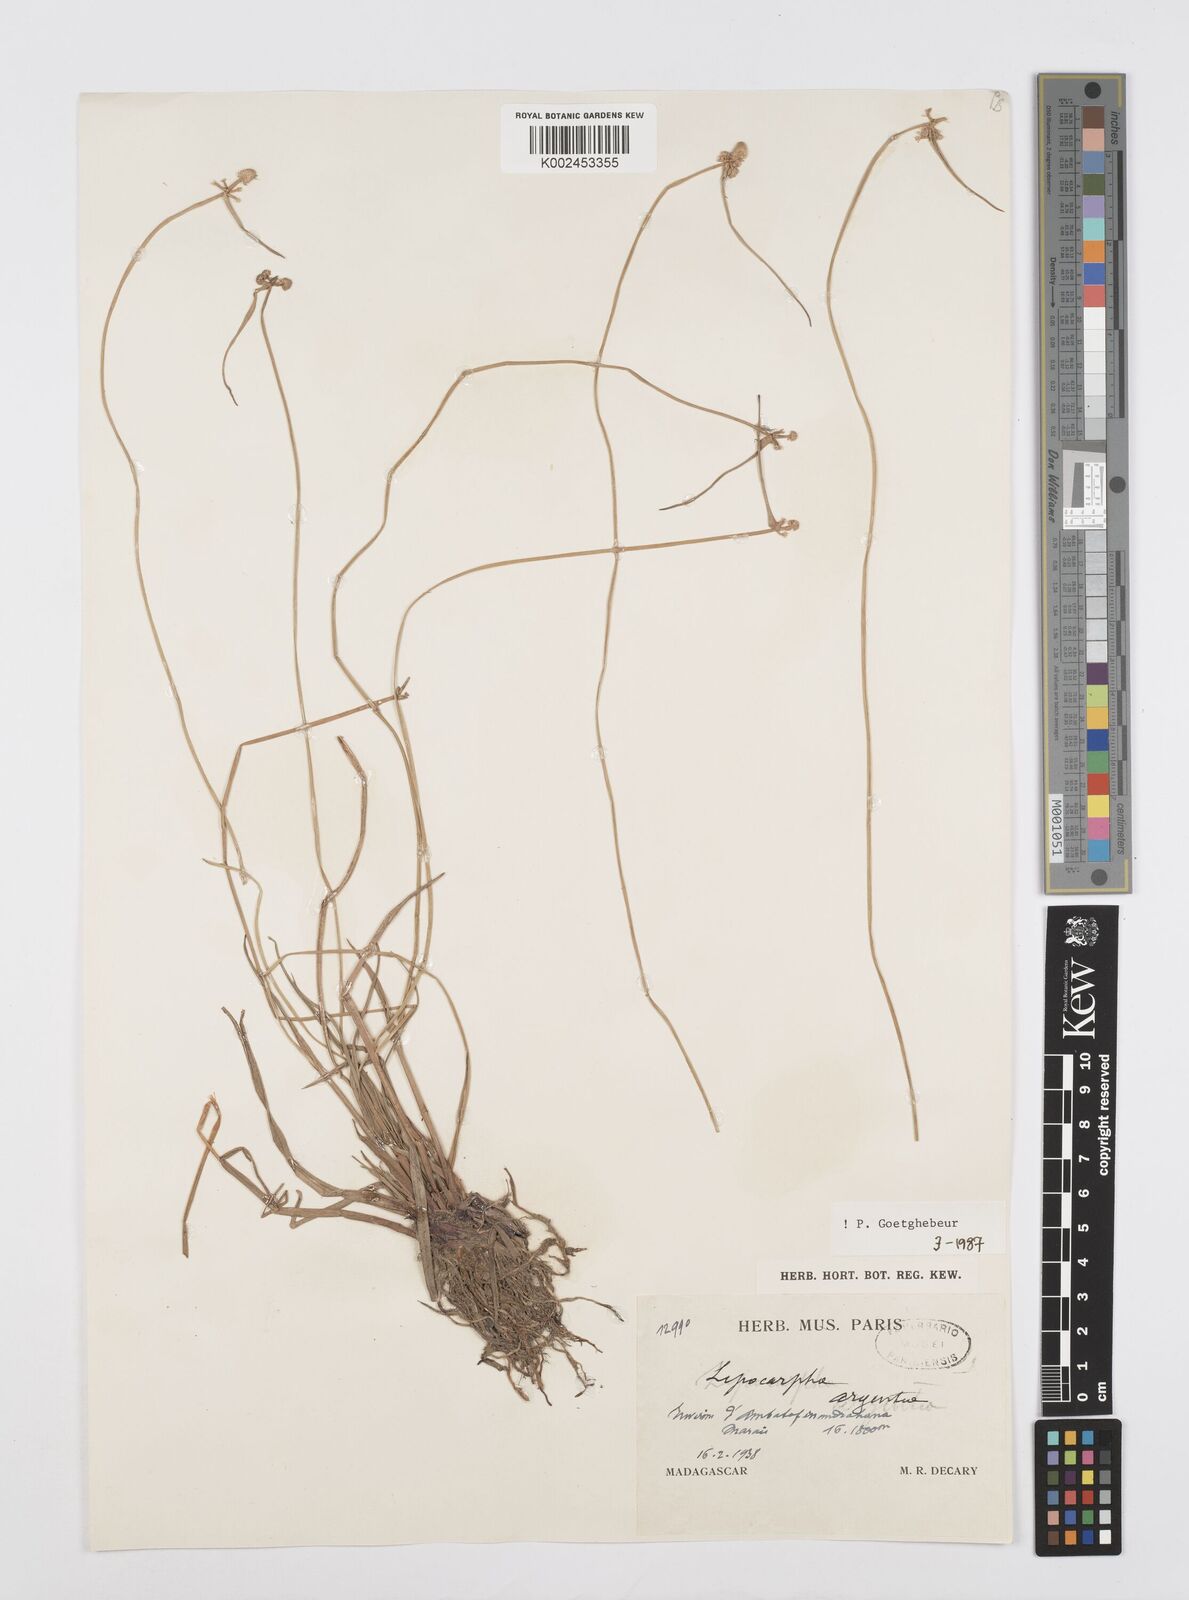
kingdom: Plantae
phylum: Tracheophyta
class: Liliopsida
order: Poales
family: Cyperaceae
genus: Cyperus
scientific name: Cyperus
